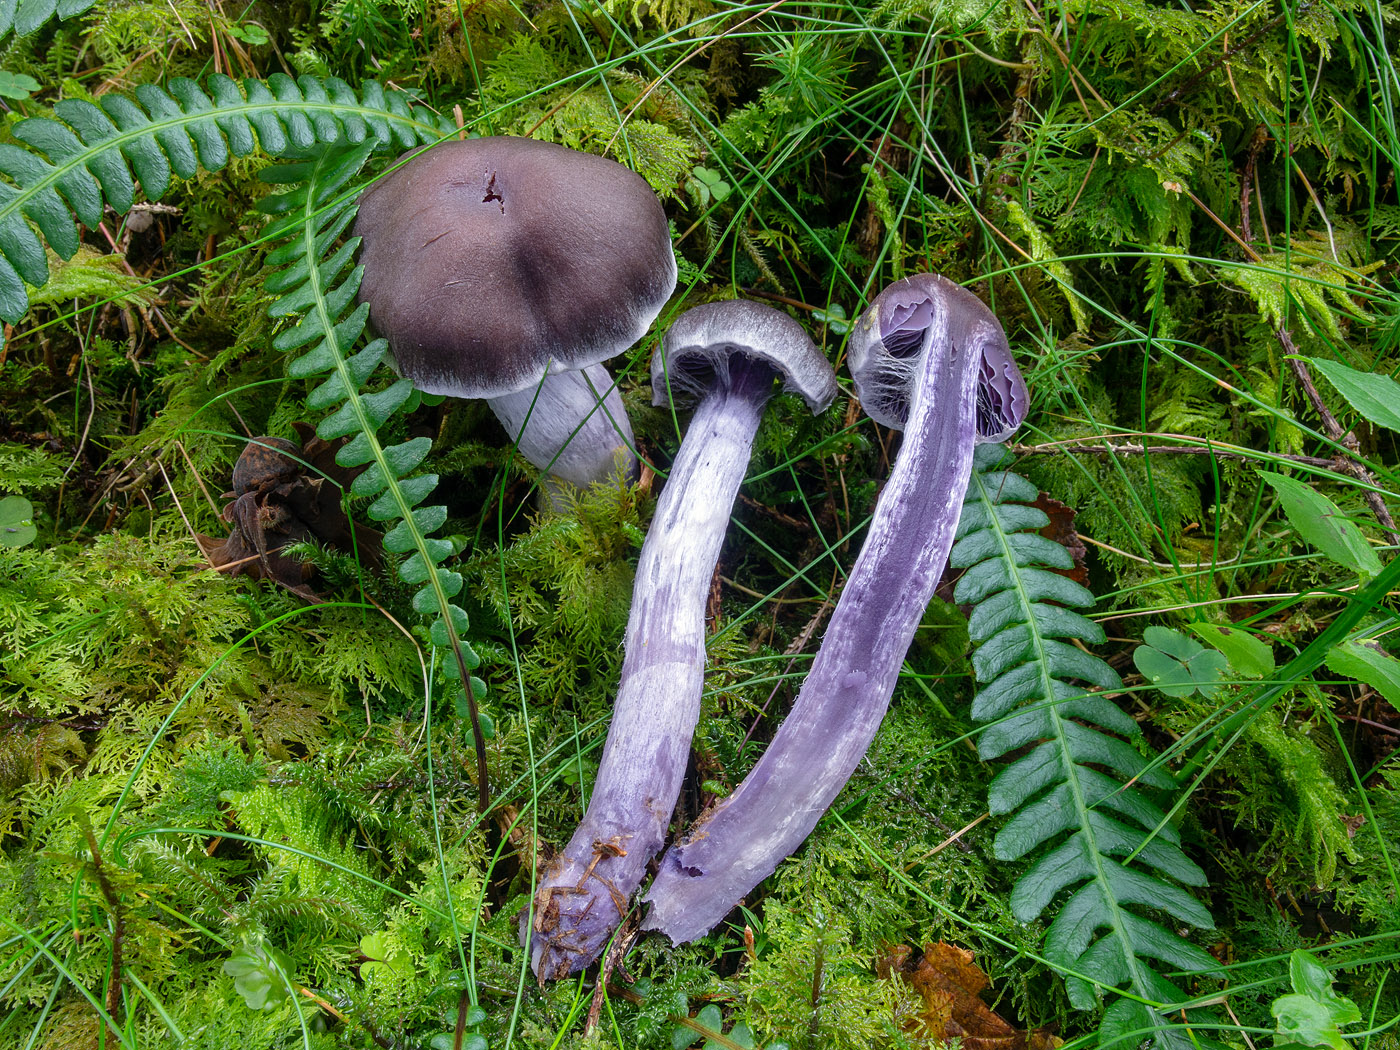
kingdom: Fungi
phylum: Basidiomycota
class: Agaricomycetes
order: Agaricales
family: Cortinariaceae
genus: Cortinarius
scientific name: Cortinarius evernius
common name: violetkødet slørhat
